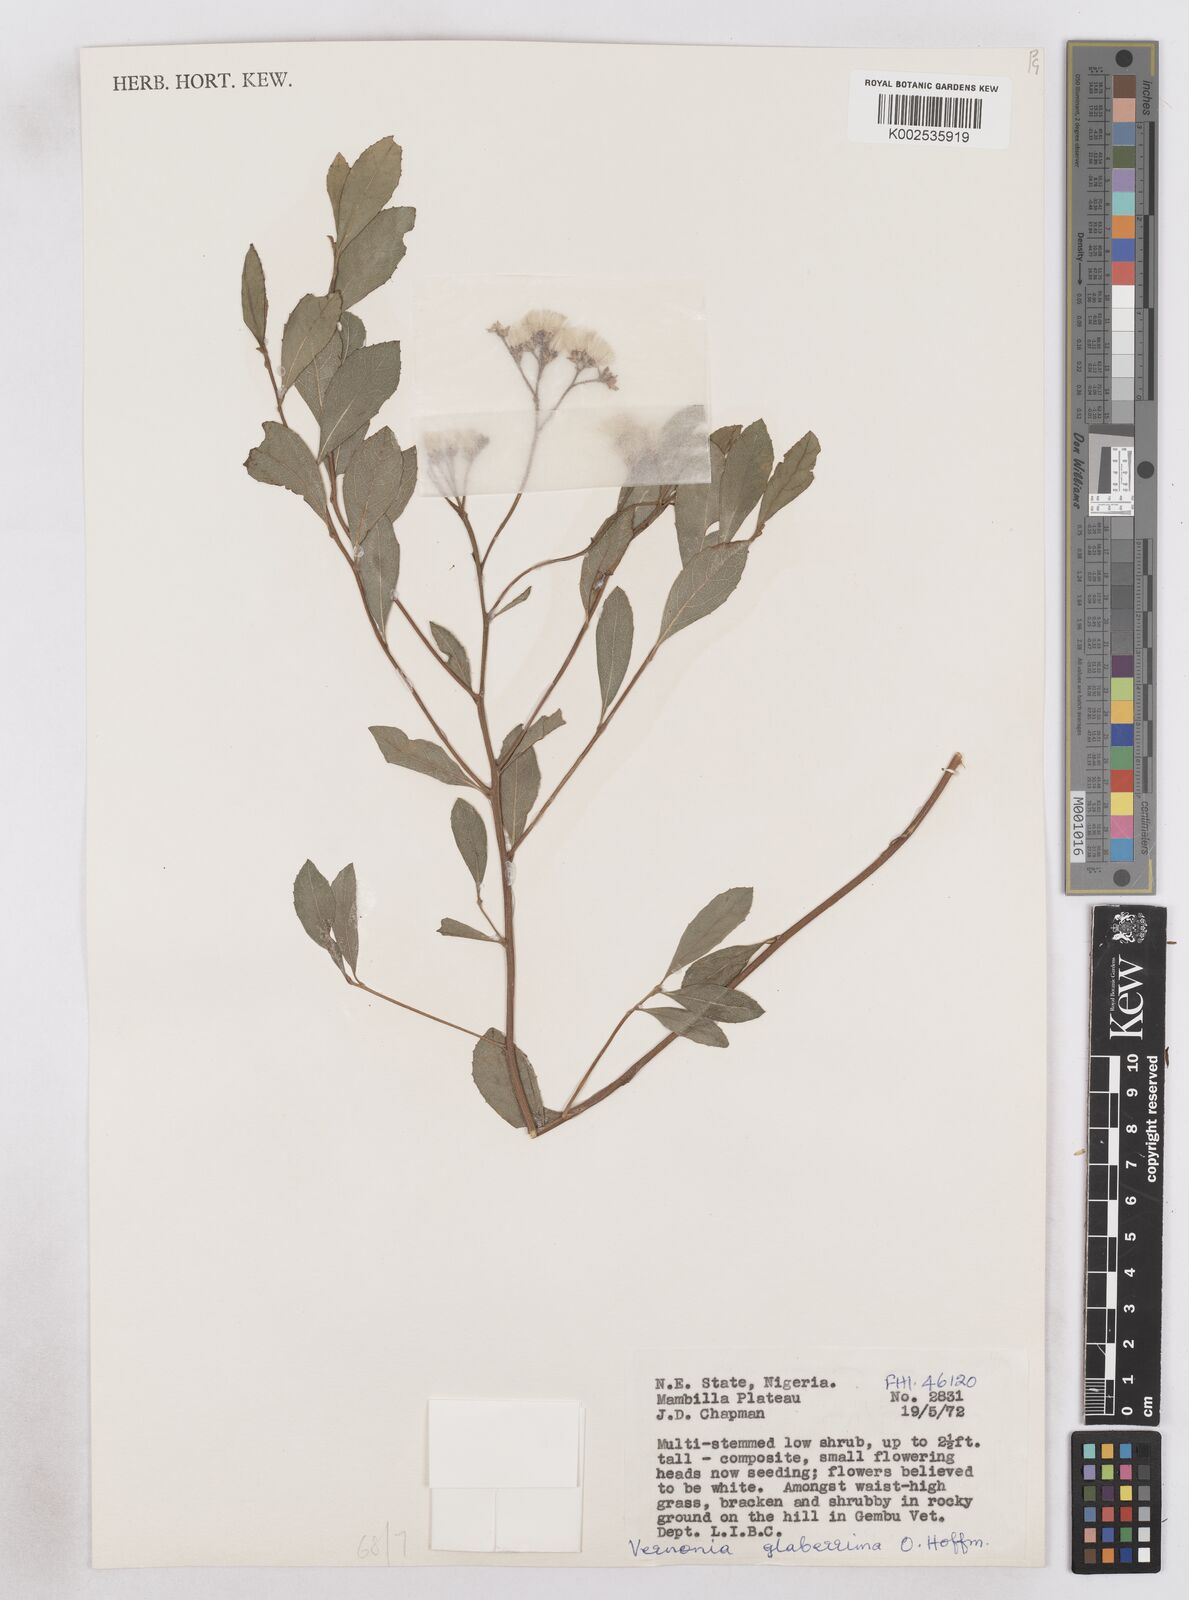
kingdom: Plantae
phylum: Tracheophyta
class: Magnoliopsida
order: Asterales
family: Asteraceae
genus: Gymnanthemum
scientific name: Gymnanthemum glaberrimum
